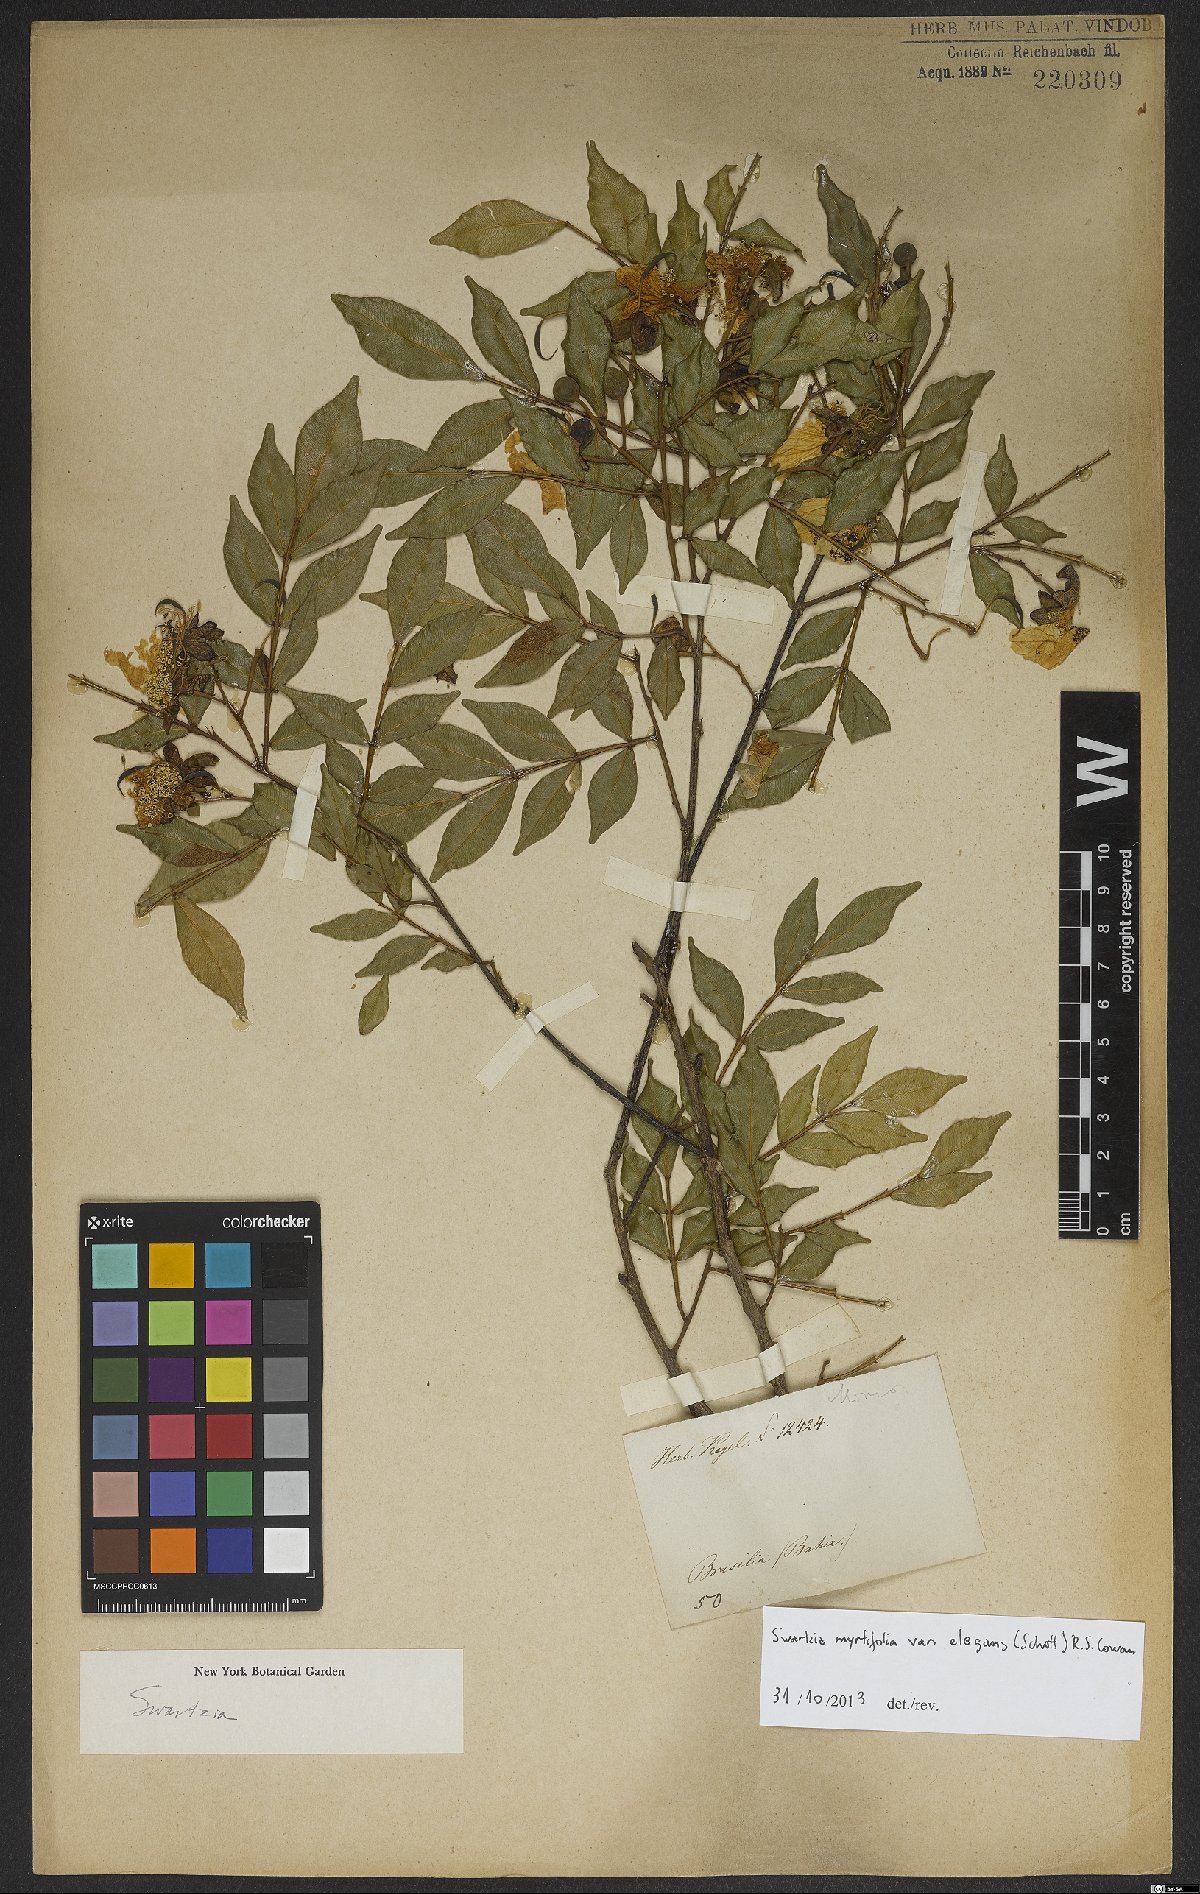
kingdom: Plantae
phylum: Tracheophyta
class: Magnoliopsida
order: Fabales
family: Fabaceae
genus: Swartzia
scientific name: Swartzia myrtifolia
